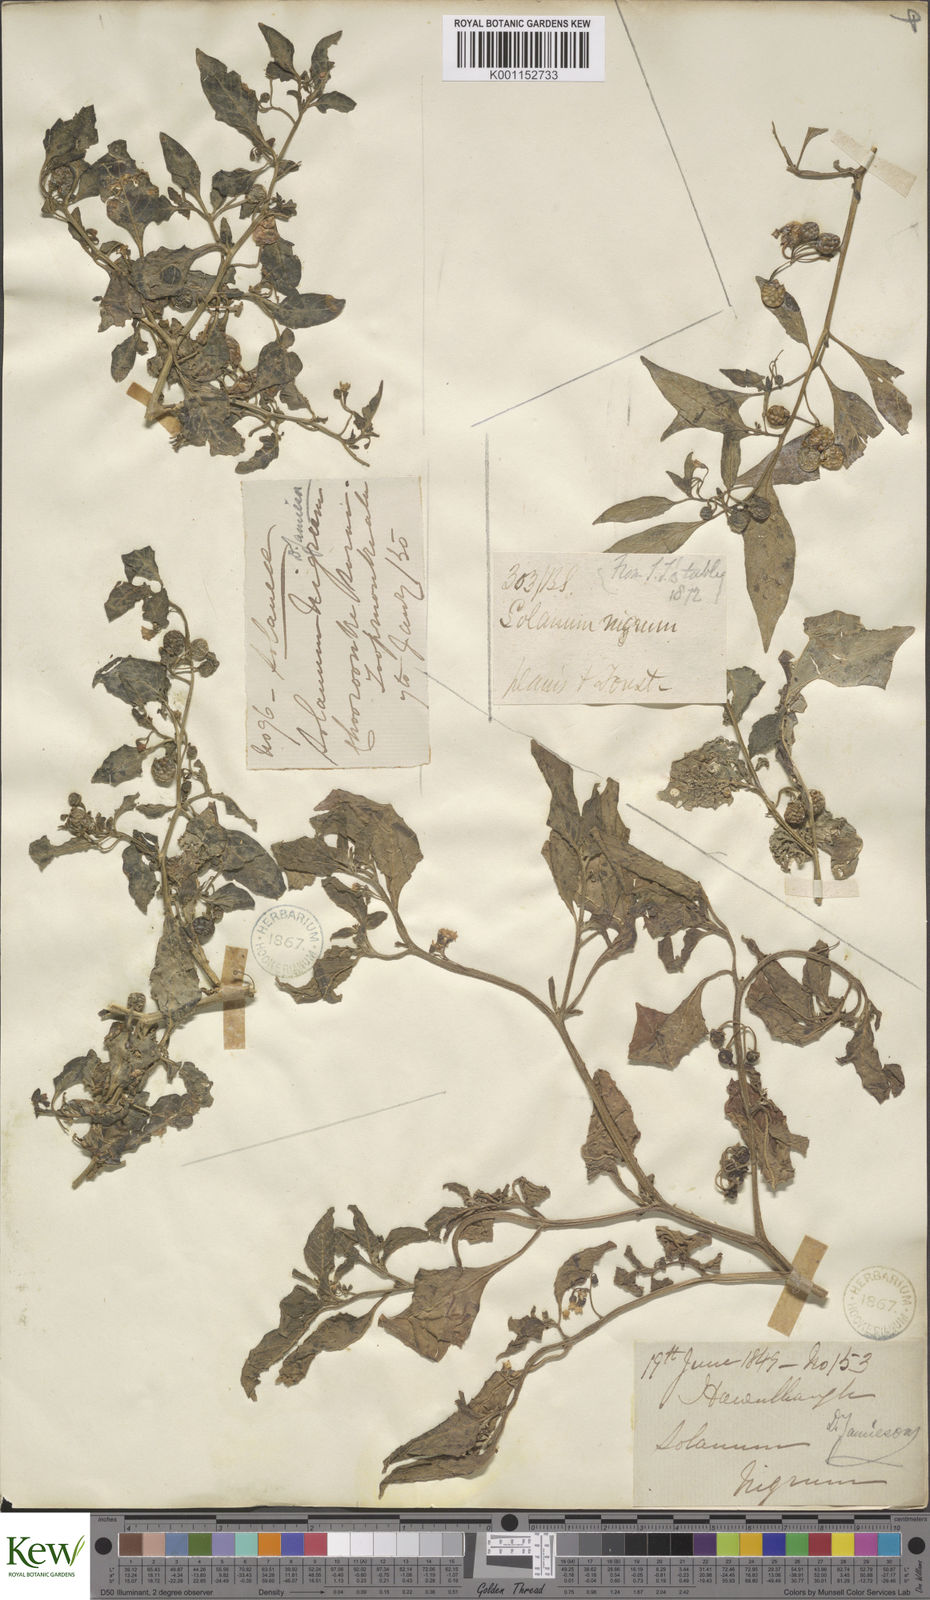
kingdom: Plantae
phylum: Tracheophyta
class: Magnoliopsida
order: Solanales
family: Solanaceae
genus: Solanum
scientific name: Solanum nigrum
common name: Black nightshade
